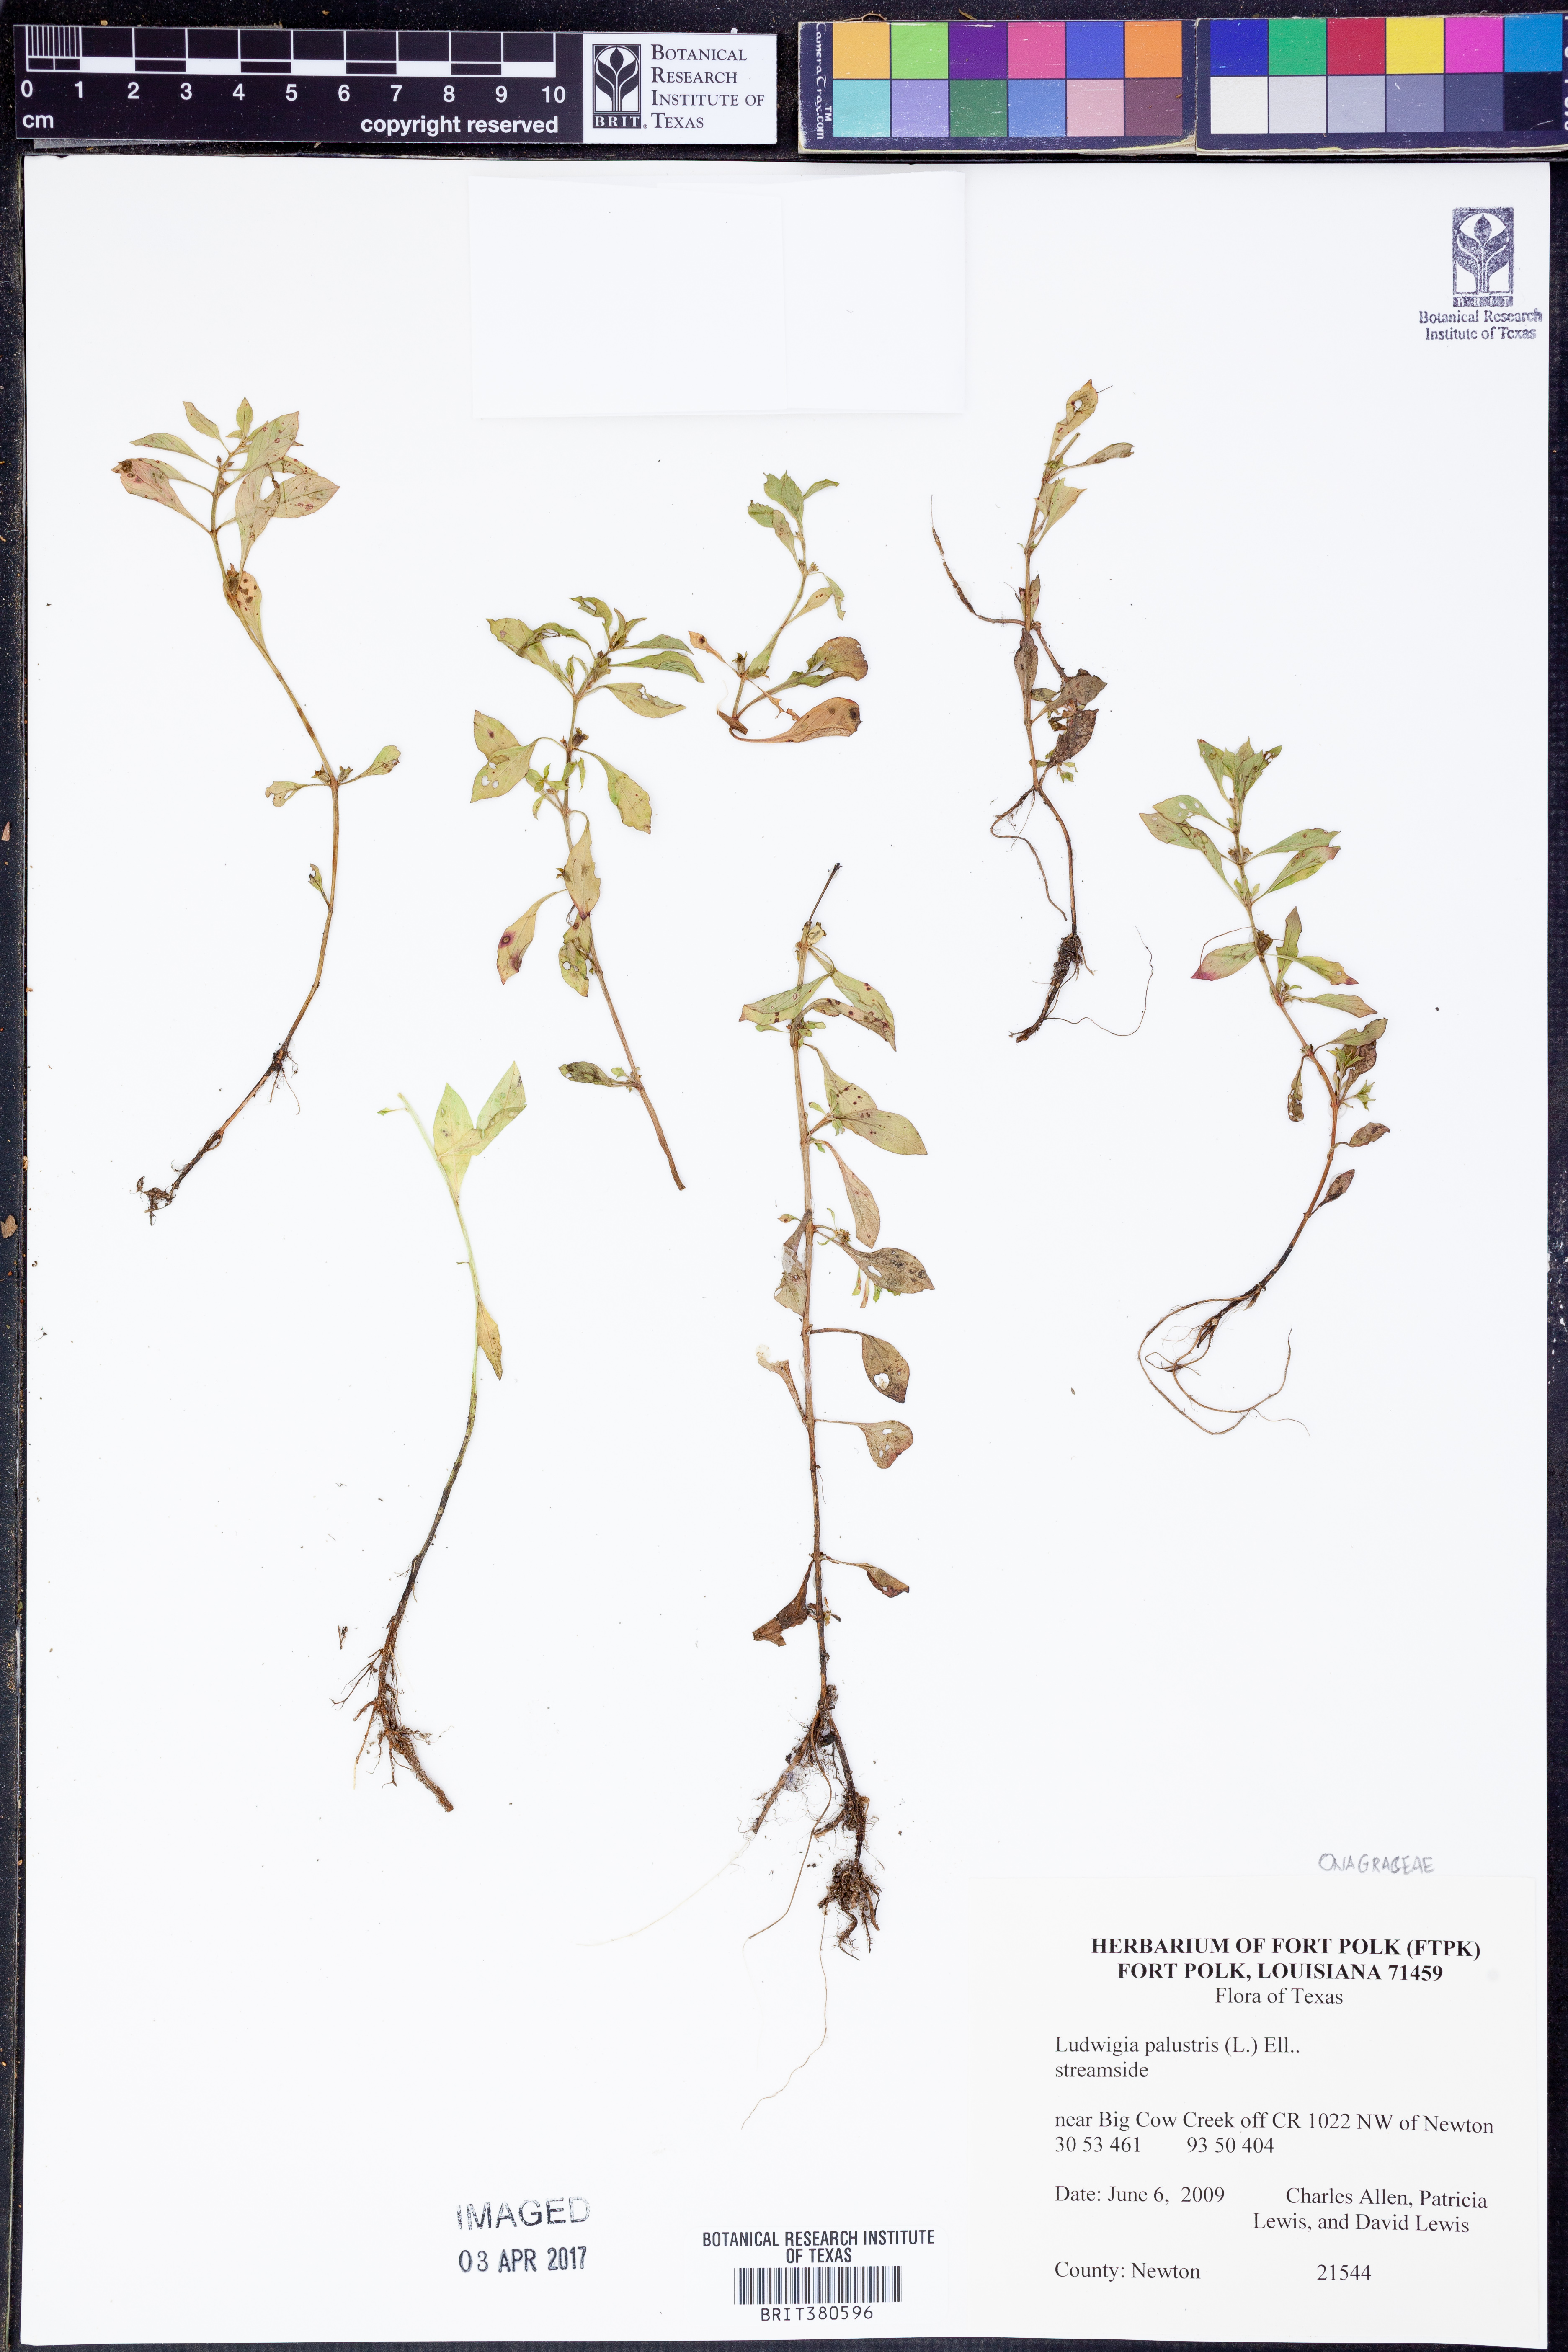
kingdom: Plantae
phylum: Tracheophyta
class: Magnoliopsida
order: Myrtales
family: Onagraceae
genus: Ludwigia
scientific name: Ludwigia palustris
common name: Hampshire-purslane
